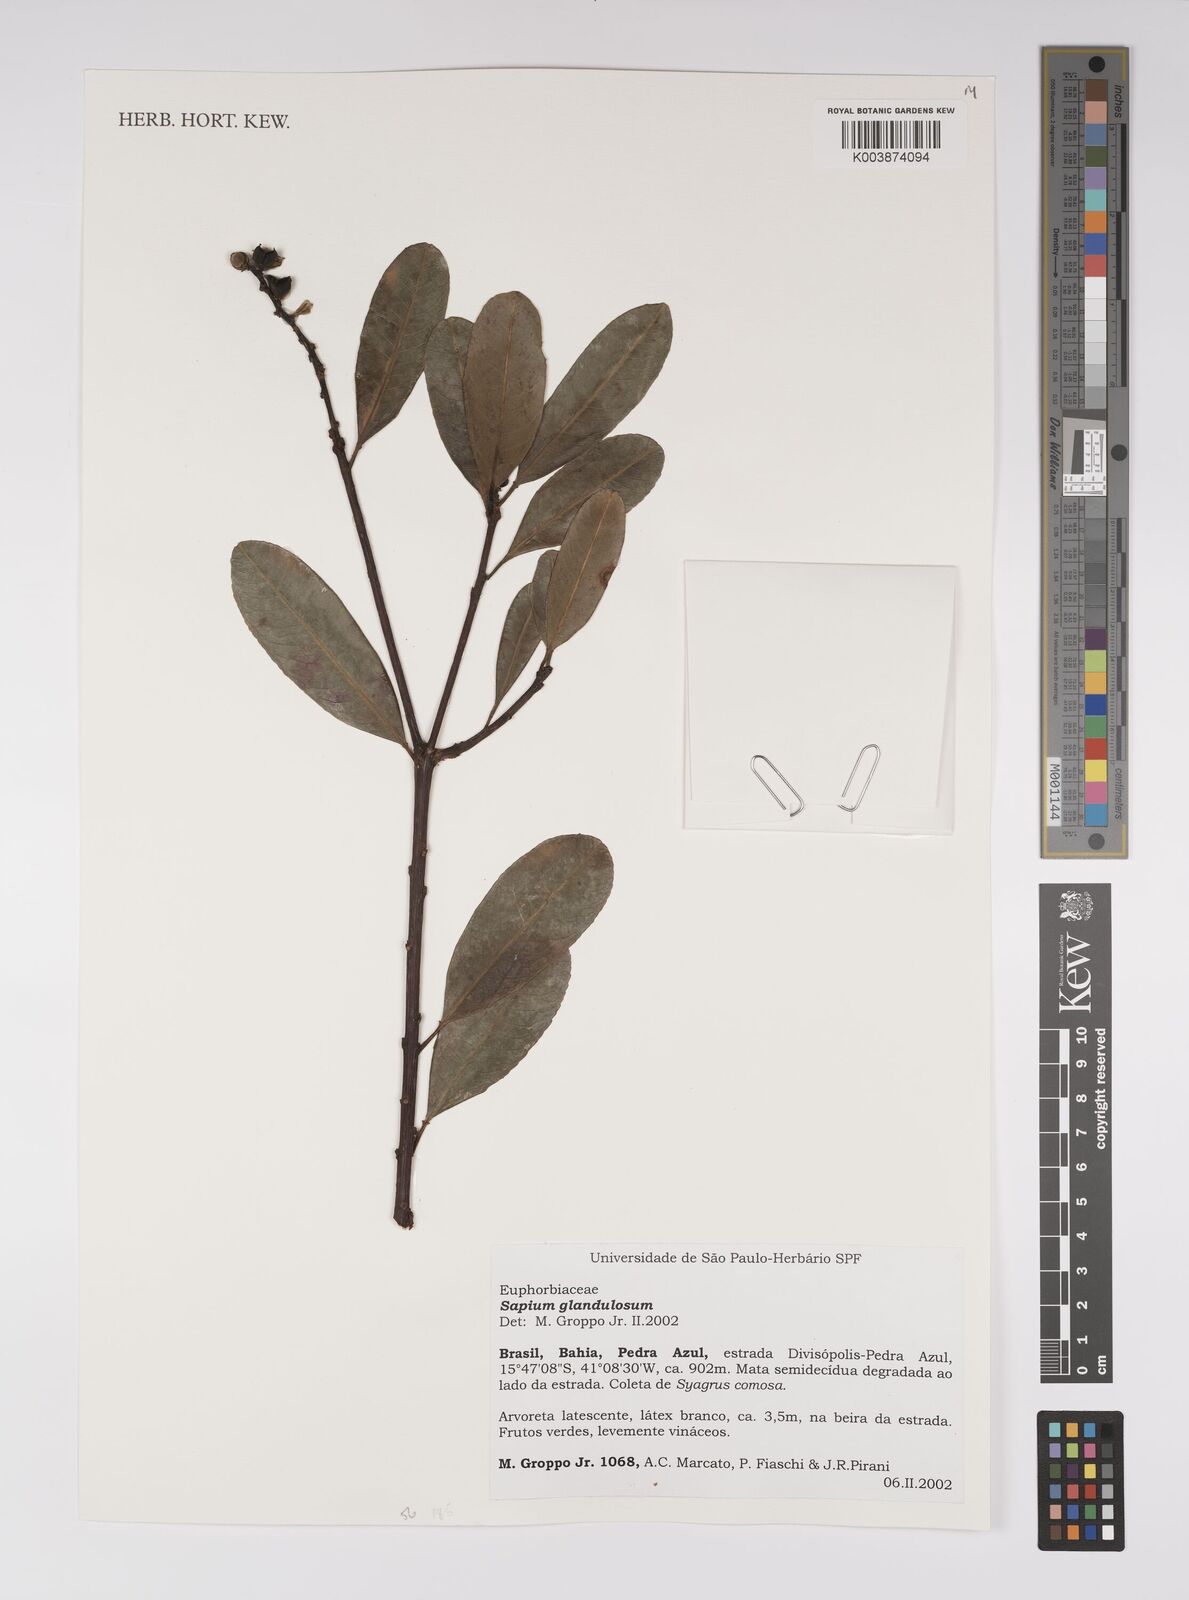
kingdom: Plantae
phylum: Tracheophyta
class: Magnoliopsida
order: Malpighiales
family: Euphorbiaceae
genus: Sapium
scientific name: Sapium glandulosum
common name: Milktree
